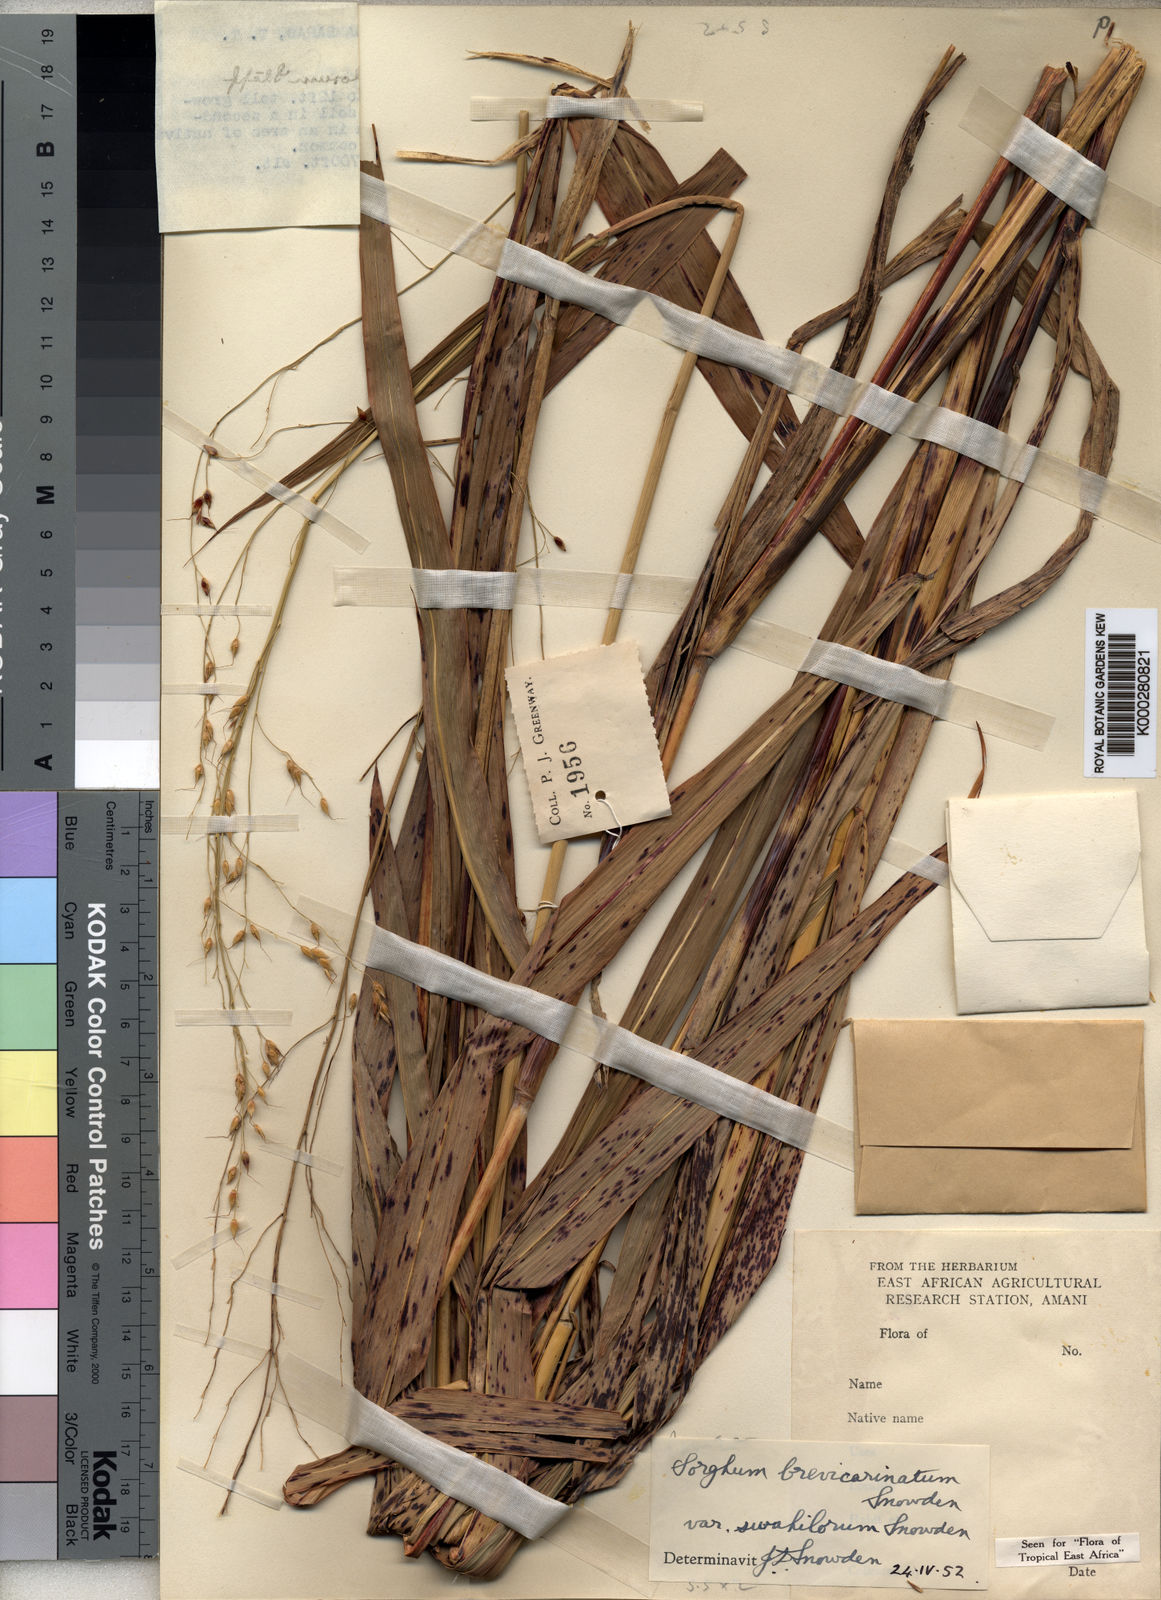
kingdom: Plantae
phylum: Tracheophyta
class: Liliopsida
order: Poales
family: Poaceae
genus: Sorghum
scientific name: Sorghum arundinaceum
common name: Sorghum
